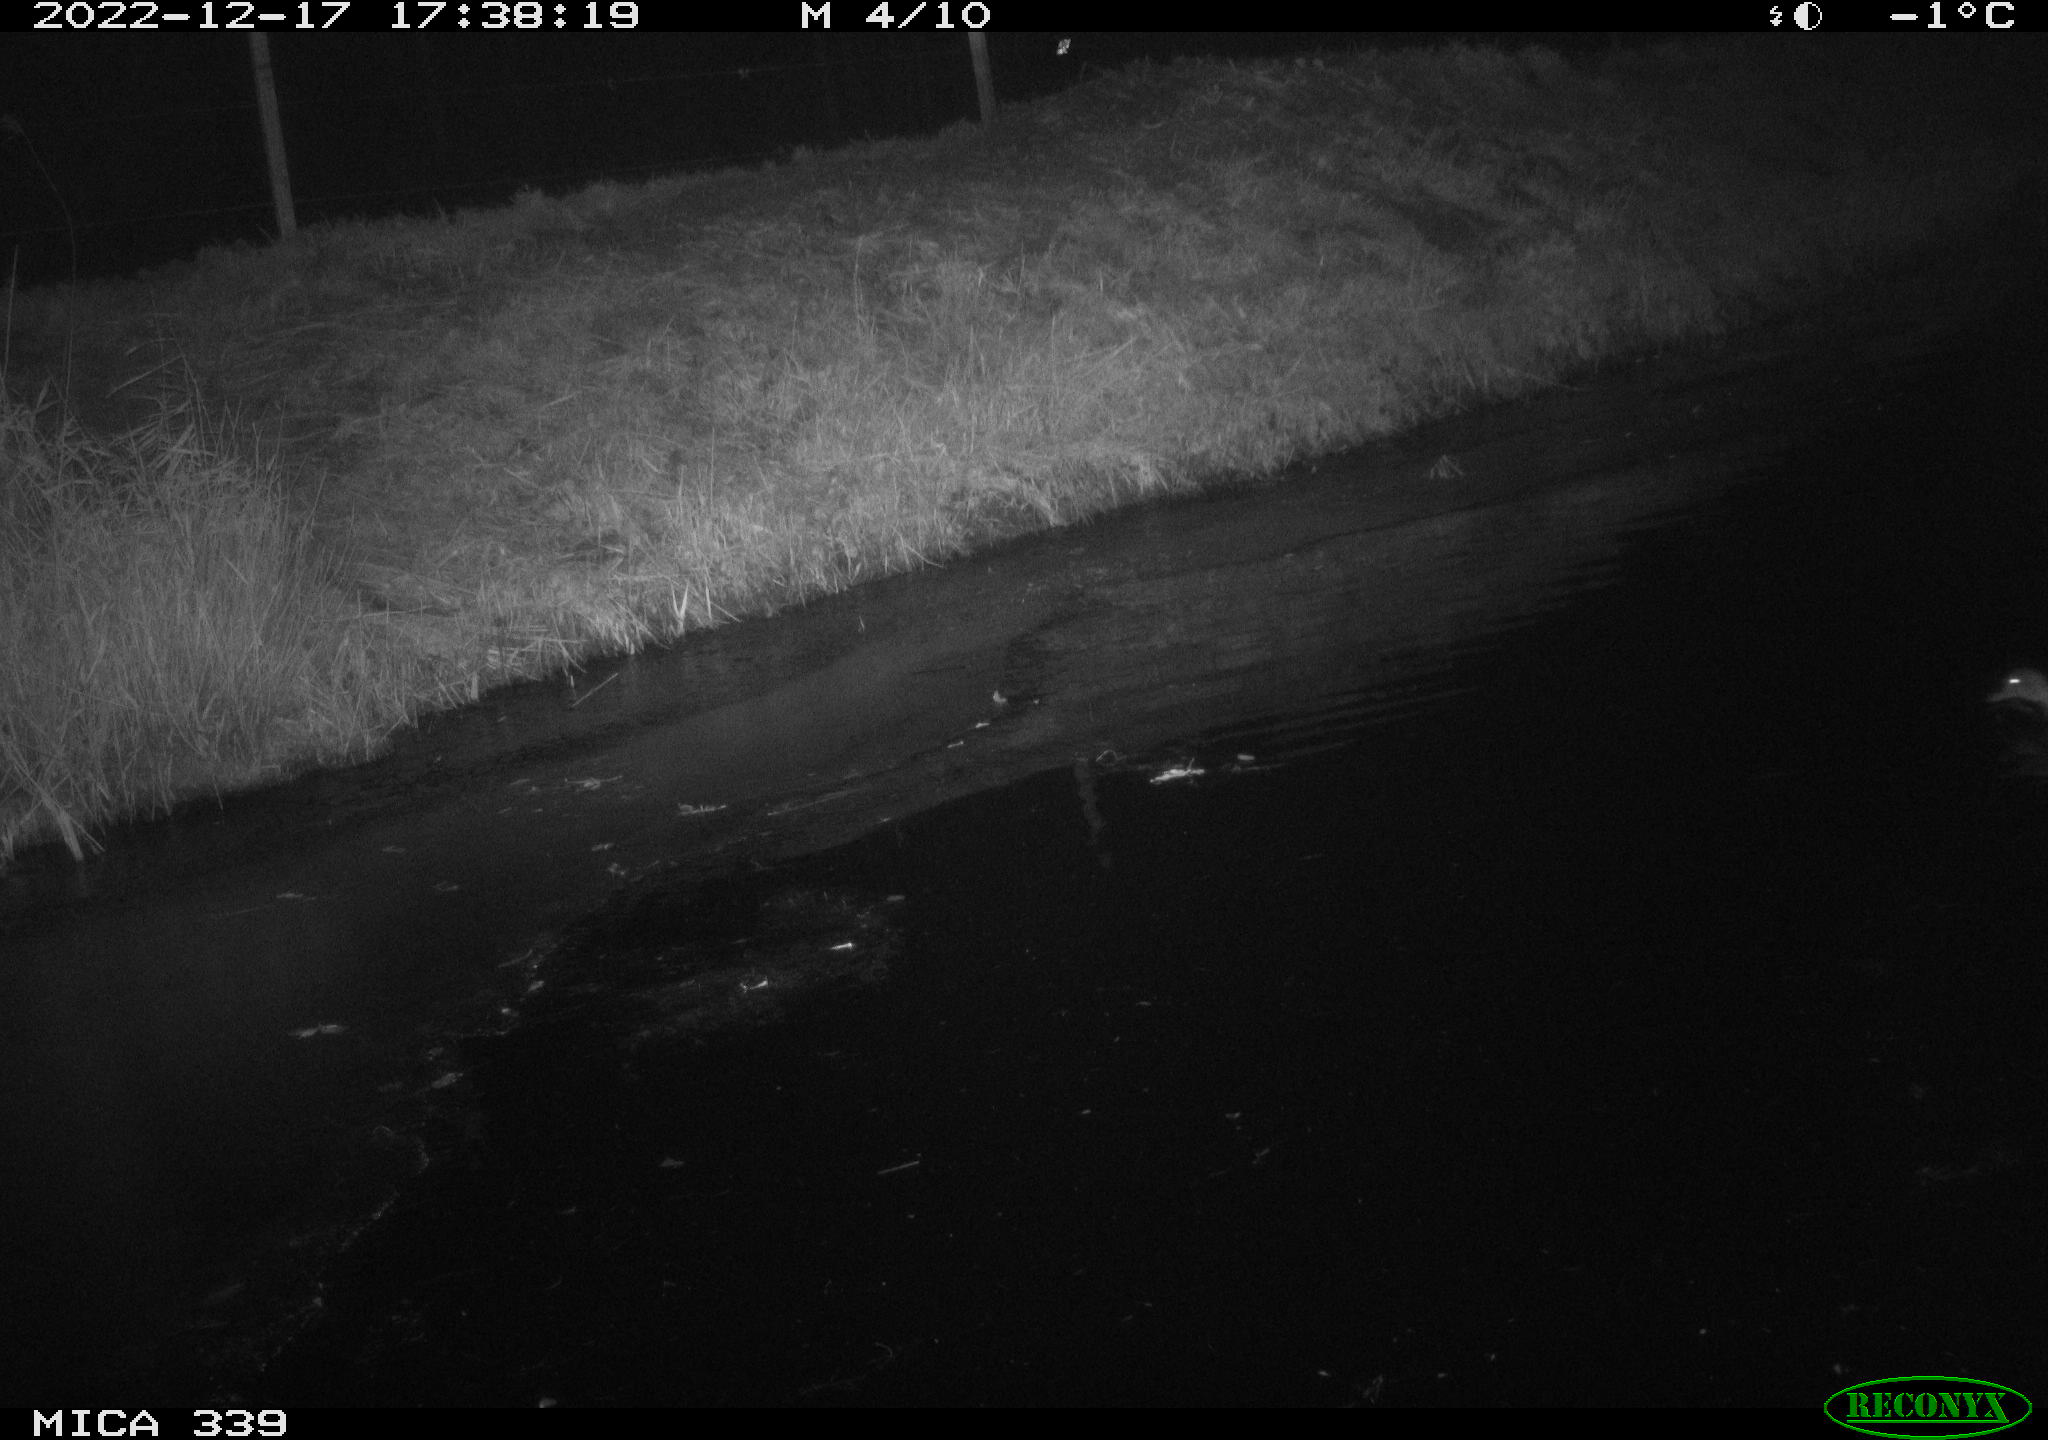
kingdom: Animalia
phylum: Chordata
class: Aves
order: Anseriformes
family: Anatidae
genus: Anas
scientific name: Anas
